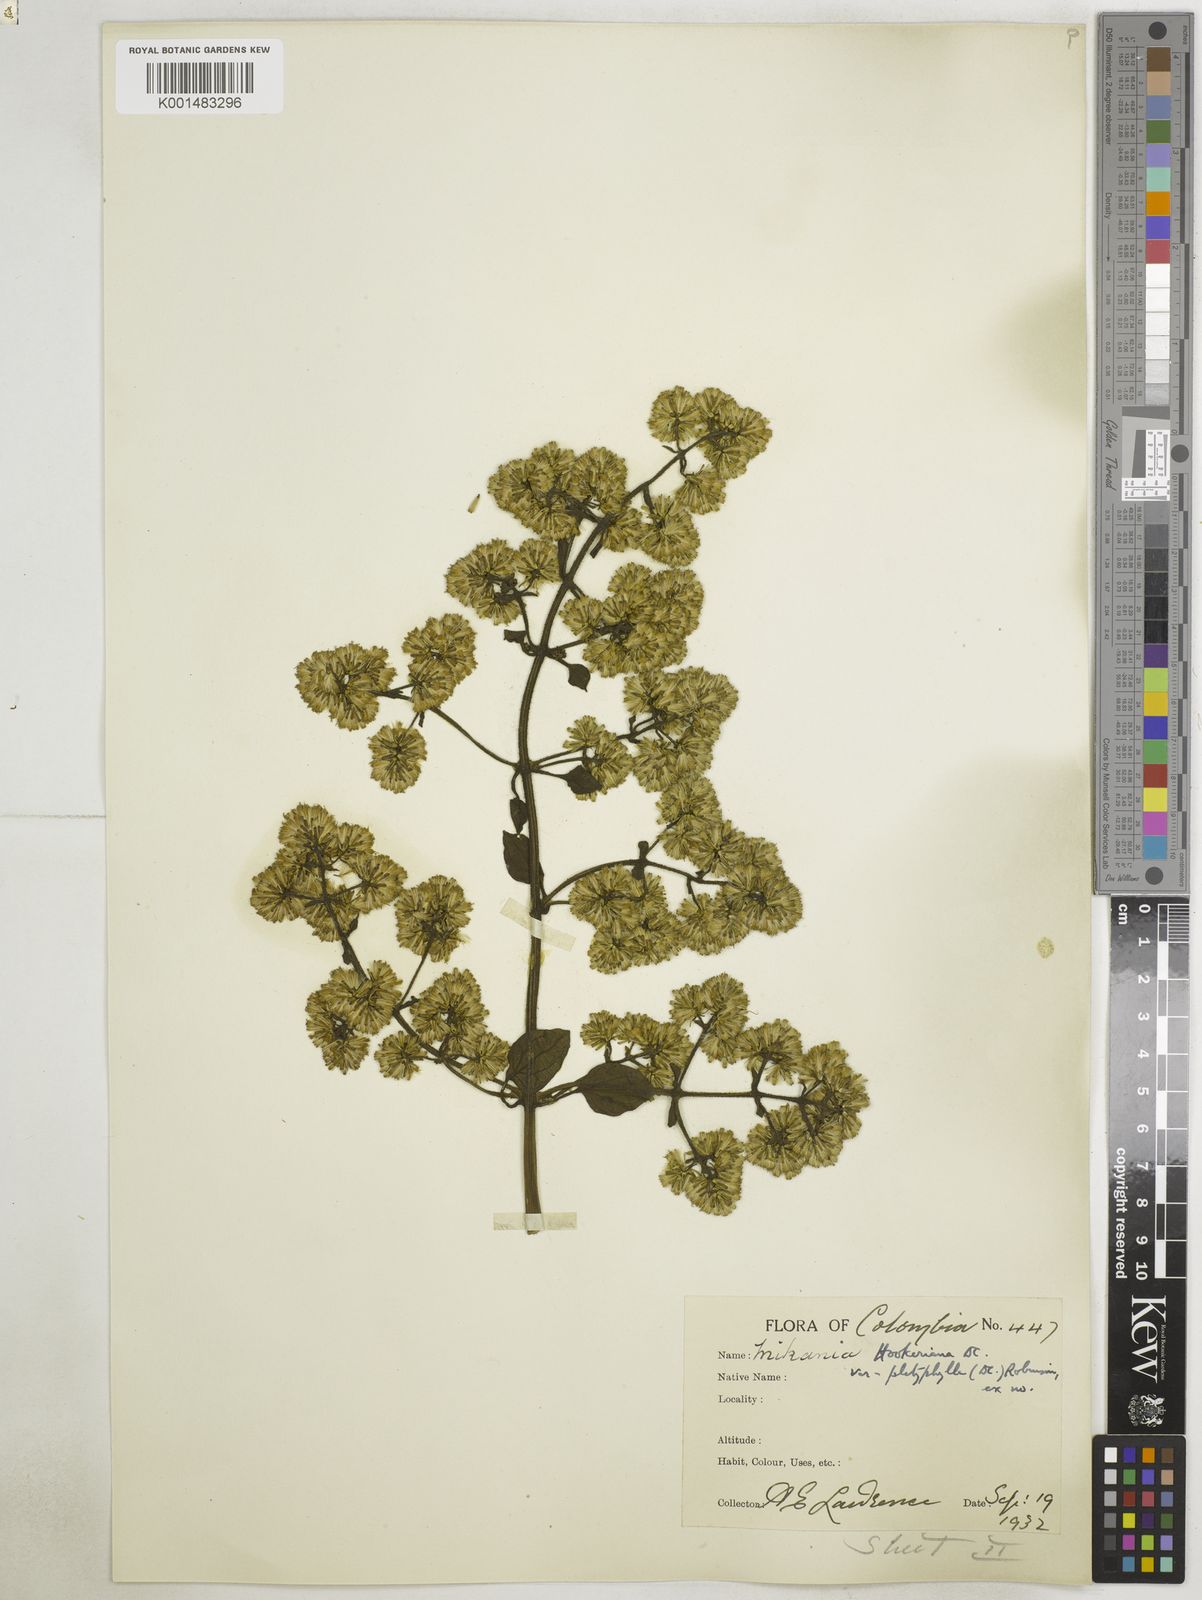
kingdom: Plantae
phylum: Tracheophyta
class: Magnoliopsida
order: Asterales
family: Asteraceae
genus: Mikania
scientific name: Mikania hookeriana
